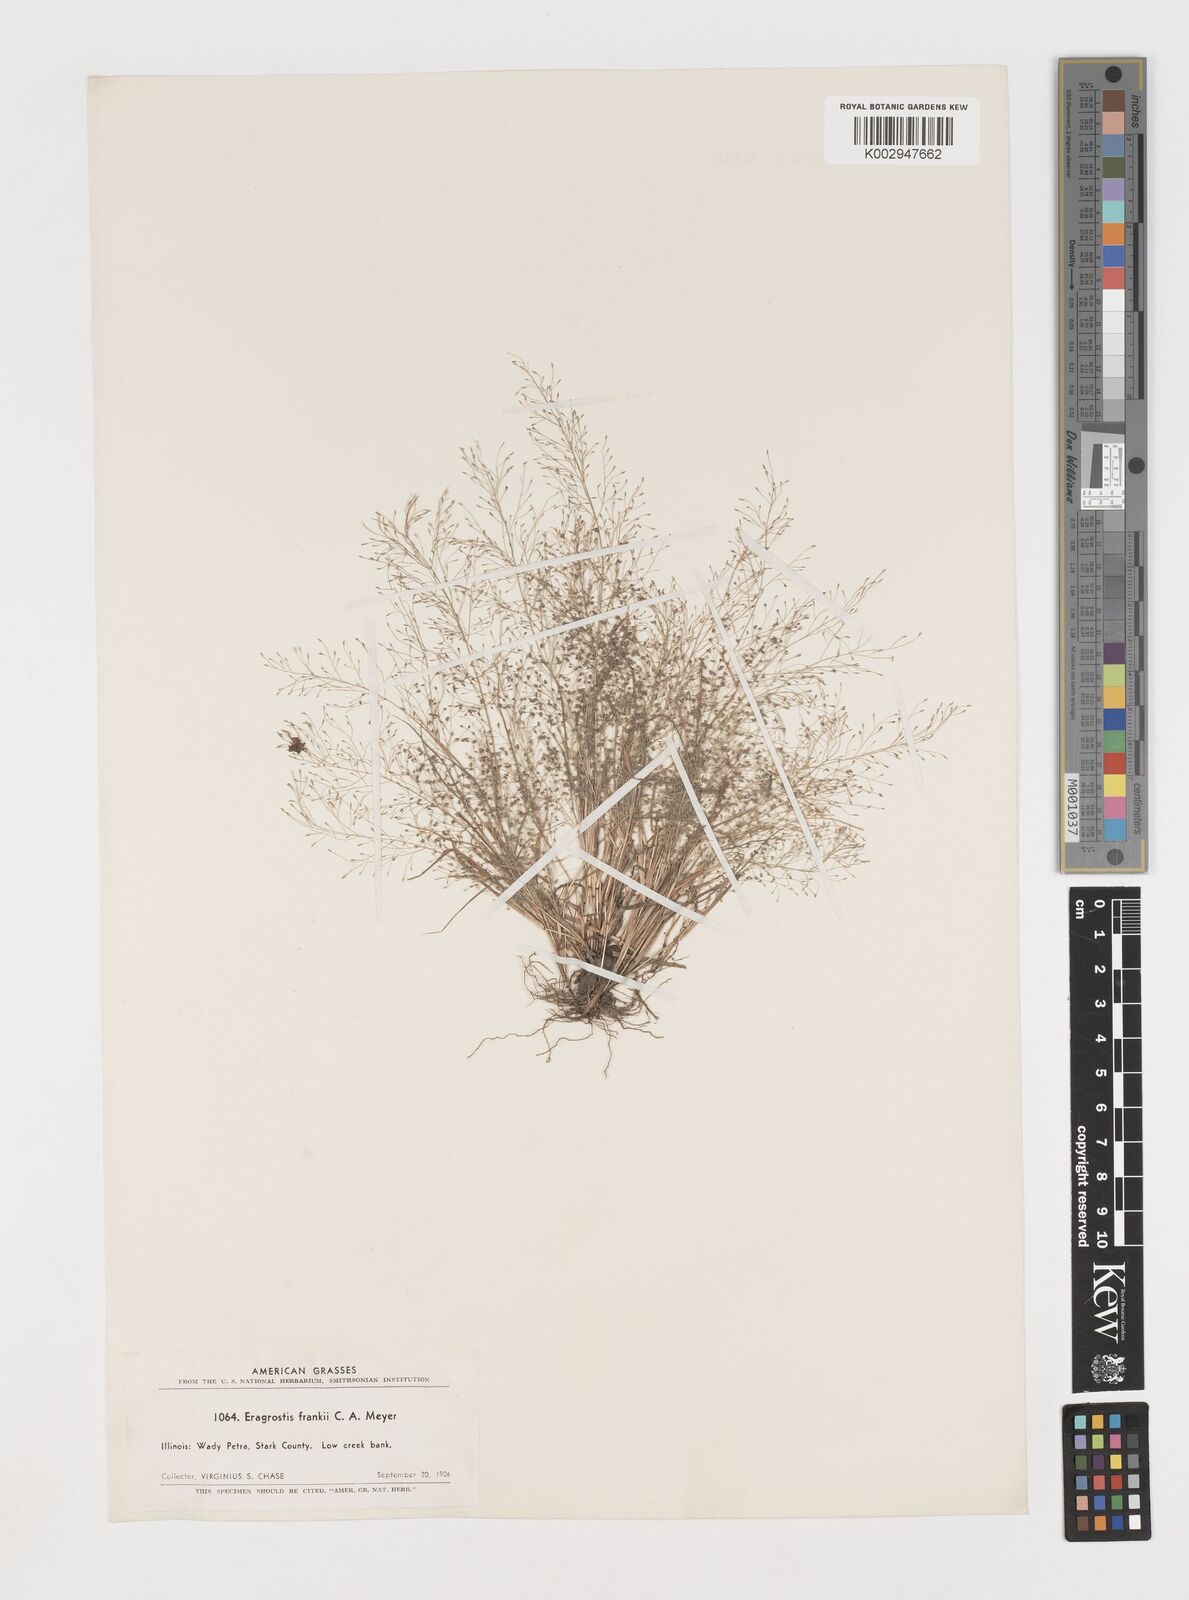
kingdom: Plantae
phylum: Tracheophyta
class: Liliopsida
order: Poales
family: Poaceae
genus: Eragrostis
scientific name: Eragrostis frankii
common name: Frank's lovegrass
